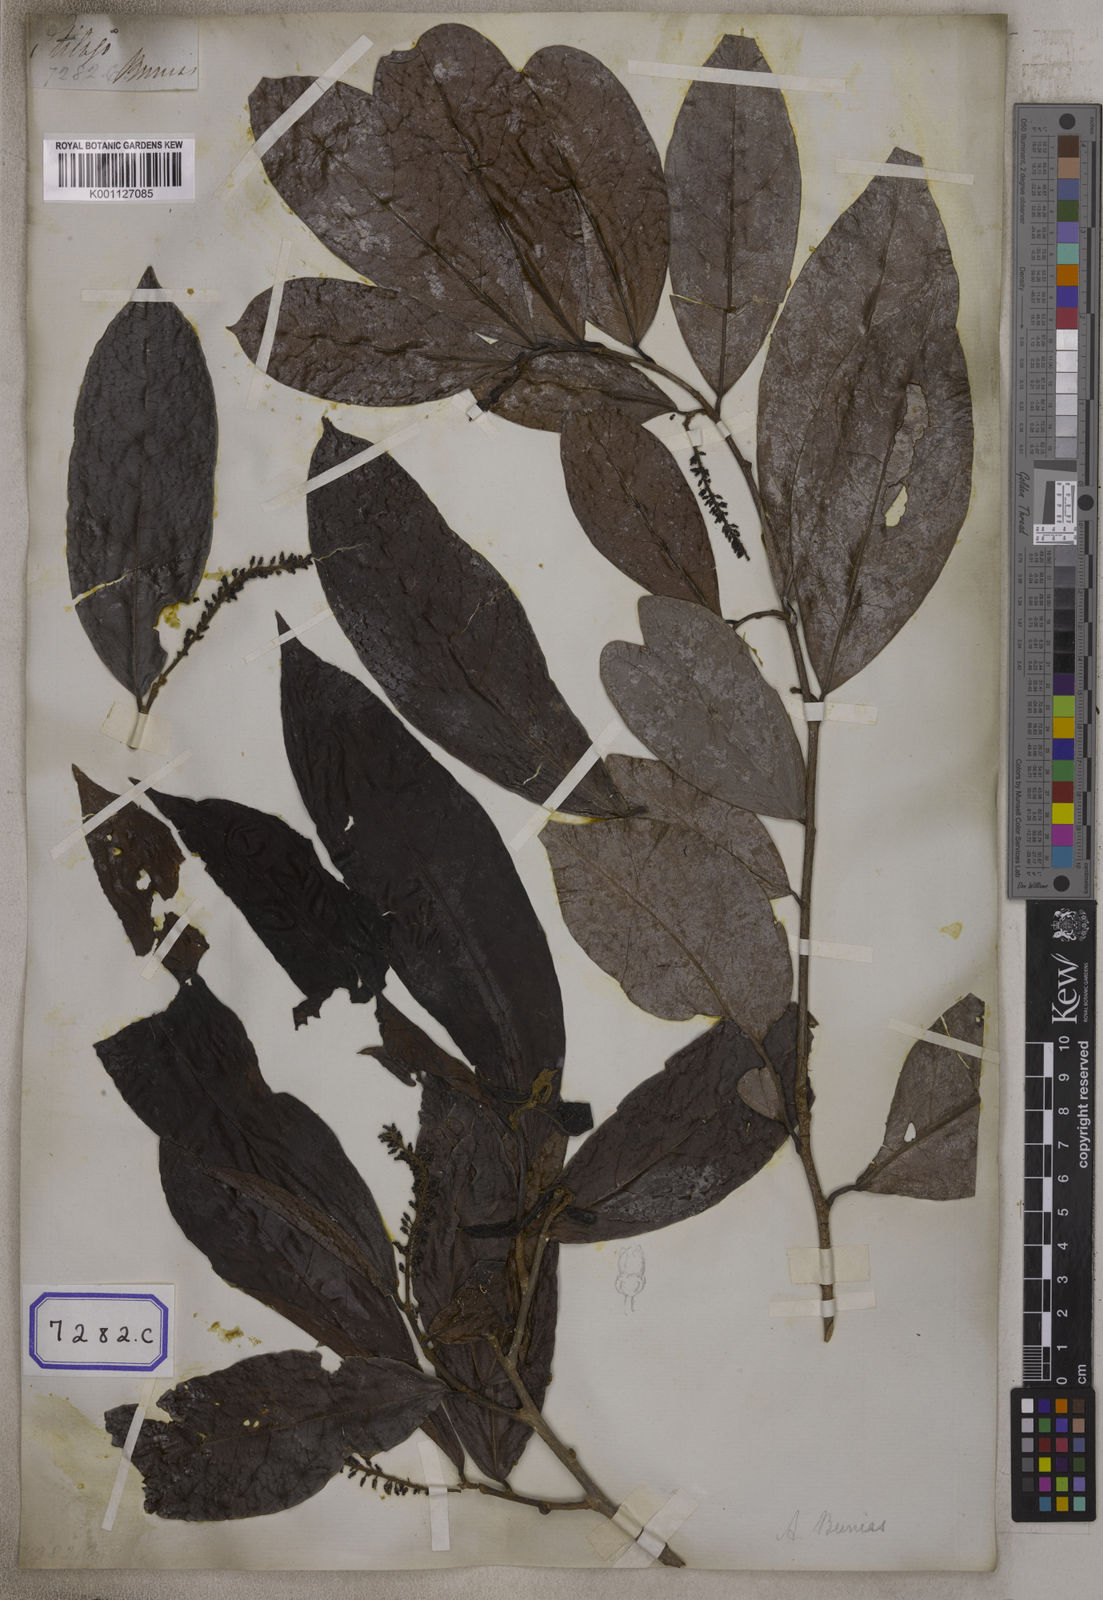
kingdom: Plantae
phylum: Tracheophyta
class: Magnoliopsida
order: Malpighiales
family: Phyllanthaceae
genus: Antidesma
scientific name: Antidesma nigricans
